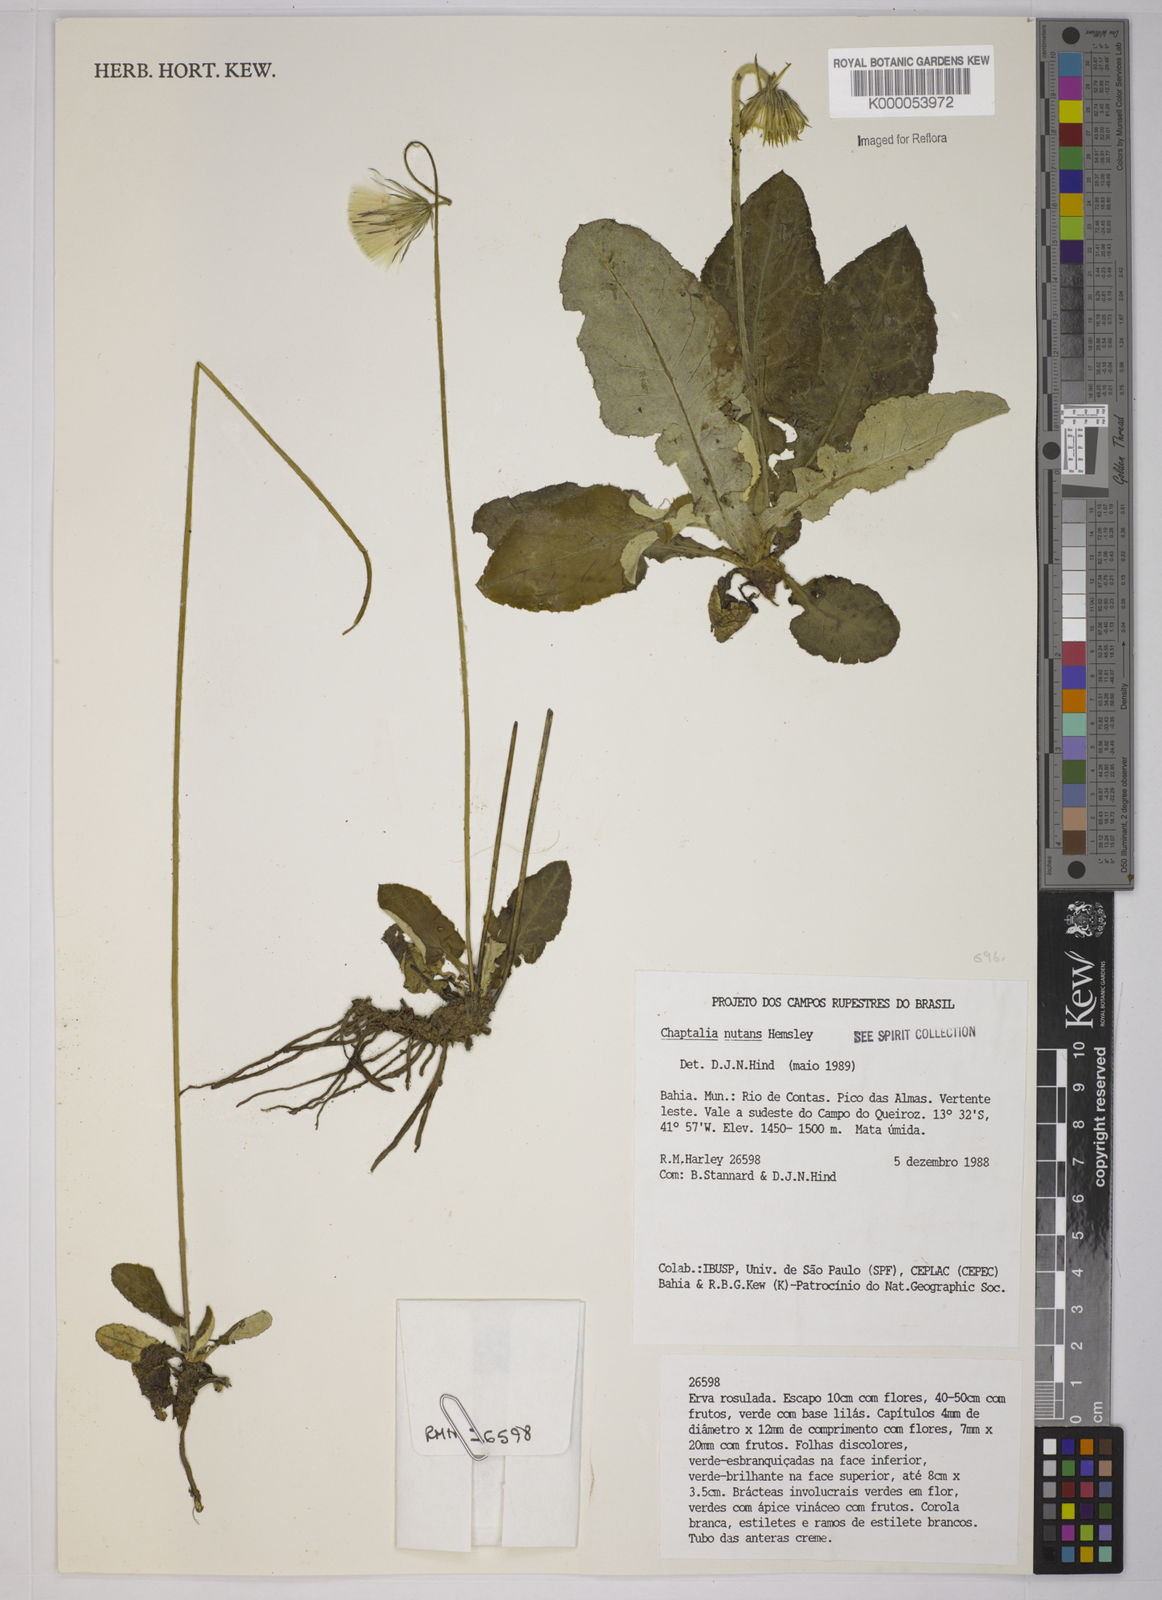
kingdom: Plantae
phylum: Tracheophyta
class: Magnoliopsida
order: Asterales
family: Asteraceae
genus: Chaptalia
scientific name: Chaptalia nutans
